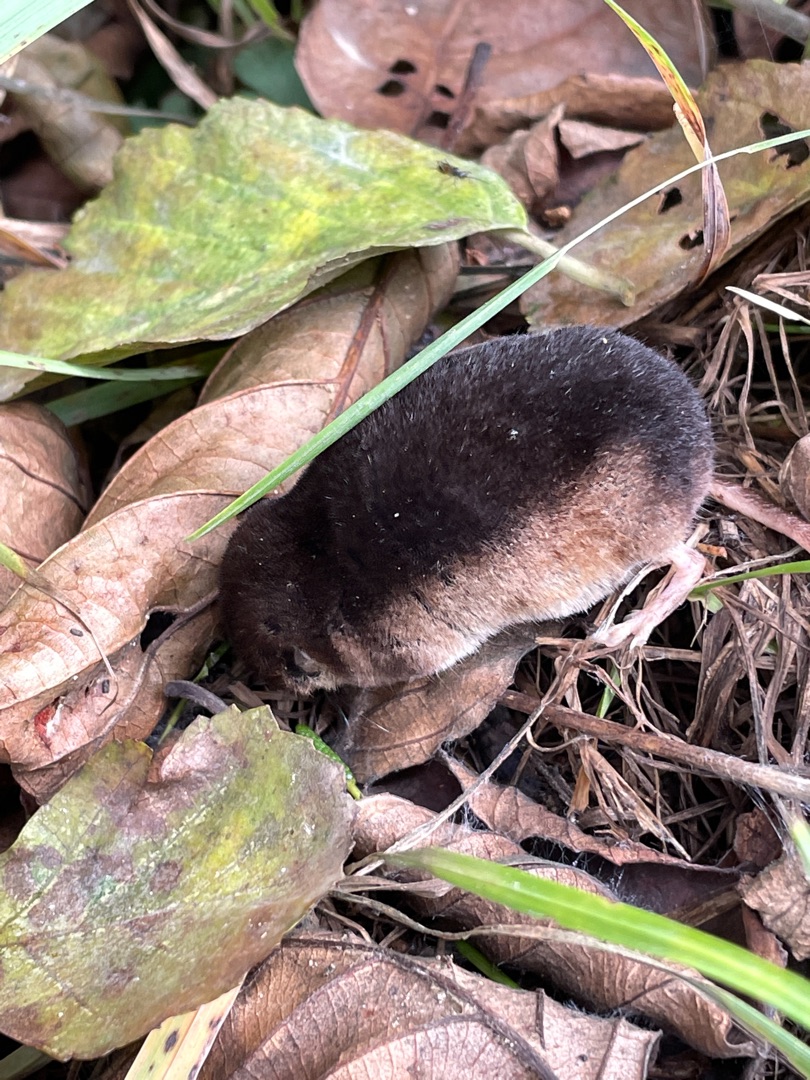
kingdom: Animalia
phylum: Chordata
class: Mammalia
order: Soricomorpha
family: Soricidae
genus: Sorex
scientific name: Sorex araneus
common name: Almindelig spidsmus
